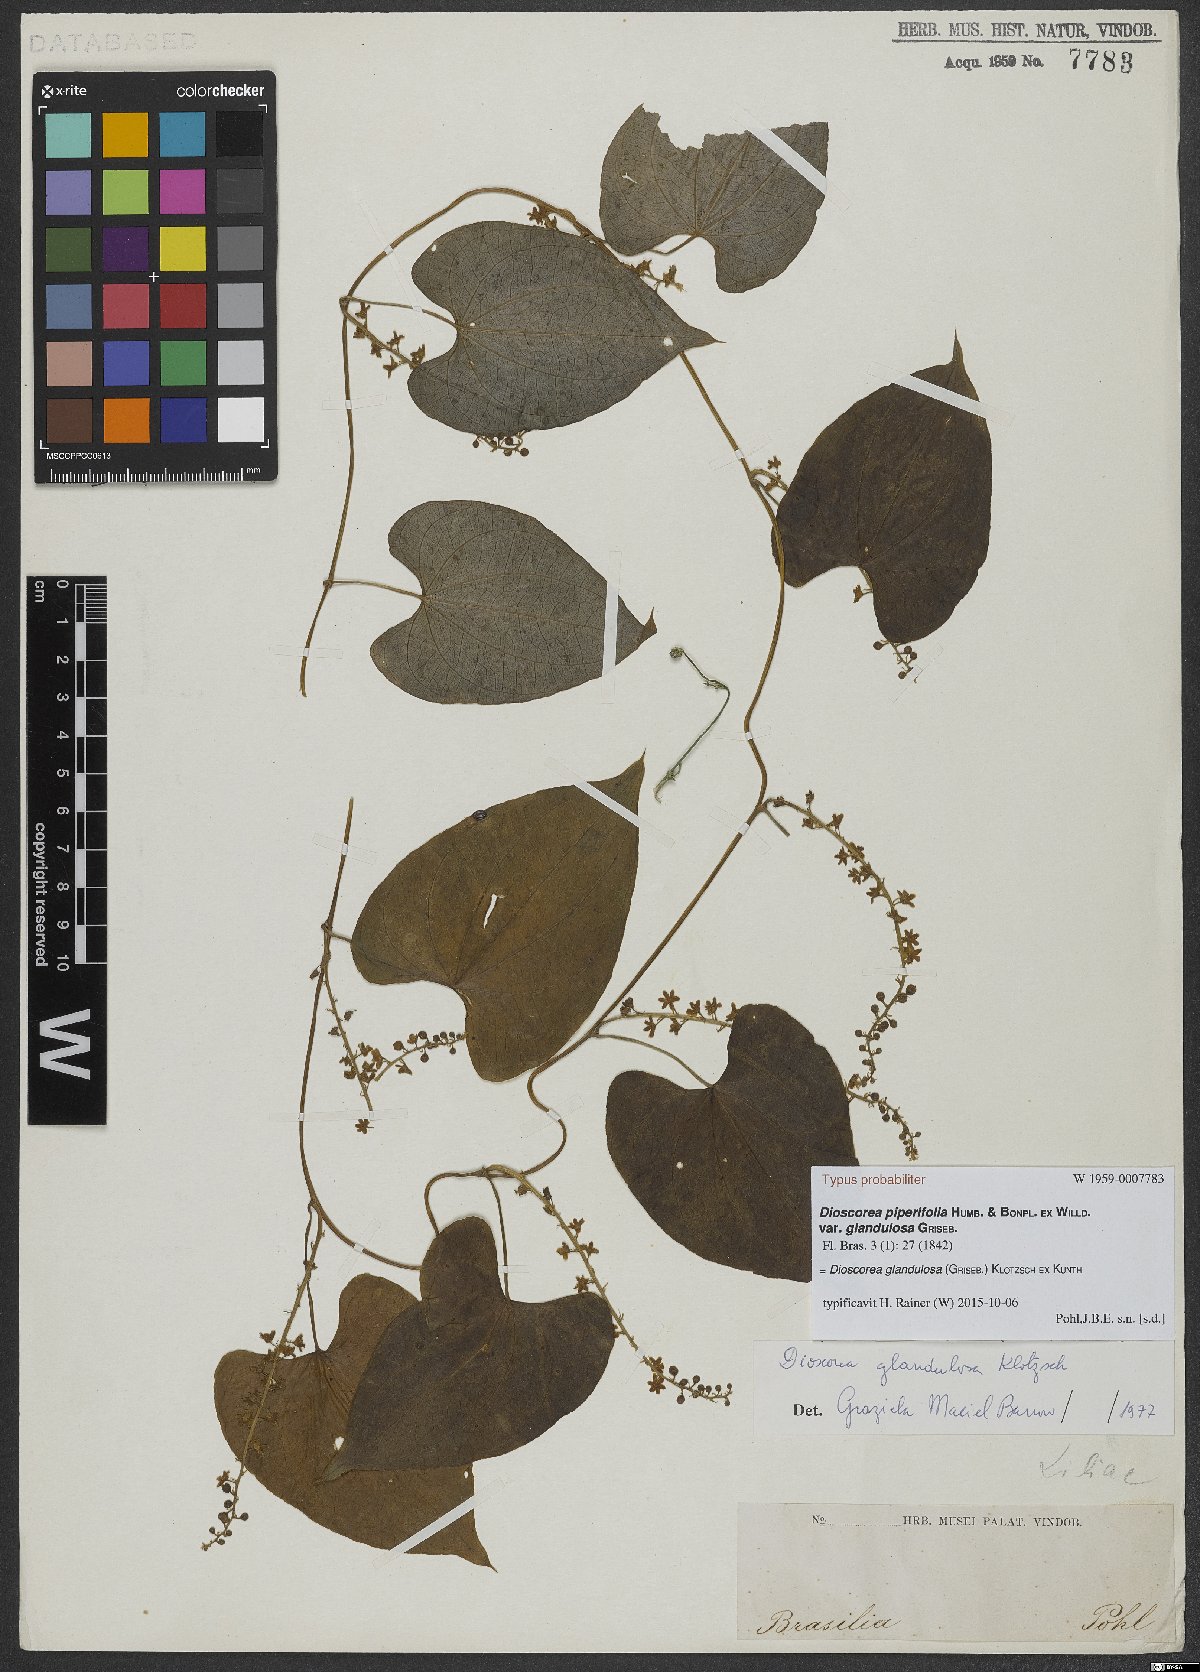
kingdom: Plantae
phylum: Tracheophyta
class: Liliopsida
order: Dioscoreales
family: Dioscoreaceae
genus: Dioscorea
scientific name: Dioscorea glandulosa
